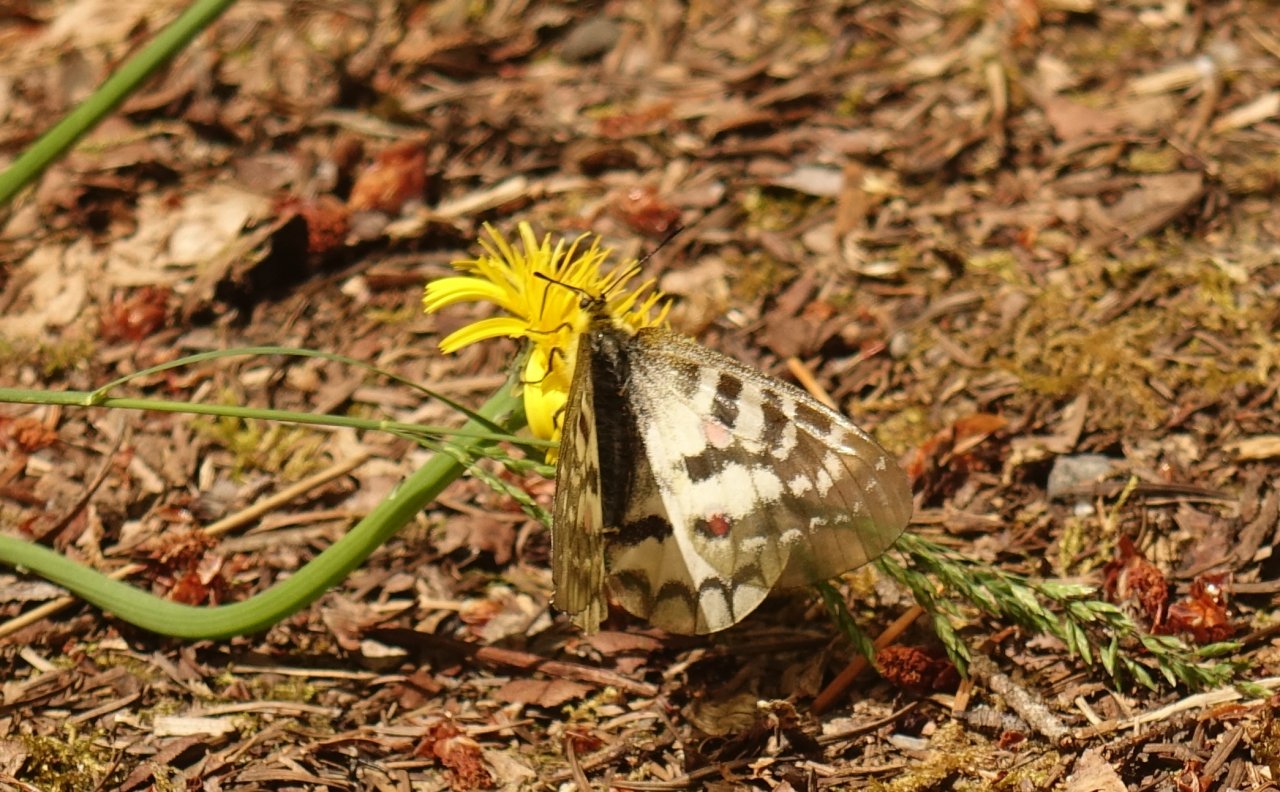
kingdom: Animalia
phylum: Arthropoda
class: Insecta
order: Lepidoptera
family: Papilionidae
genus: Parnassius
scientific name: Parnassius clodius
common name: Clodius Parnassian
